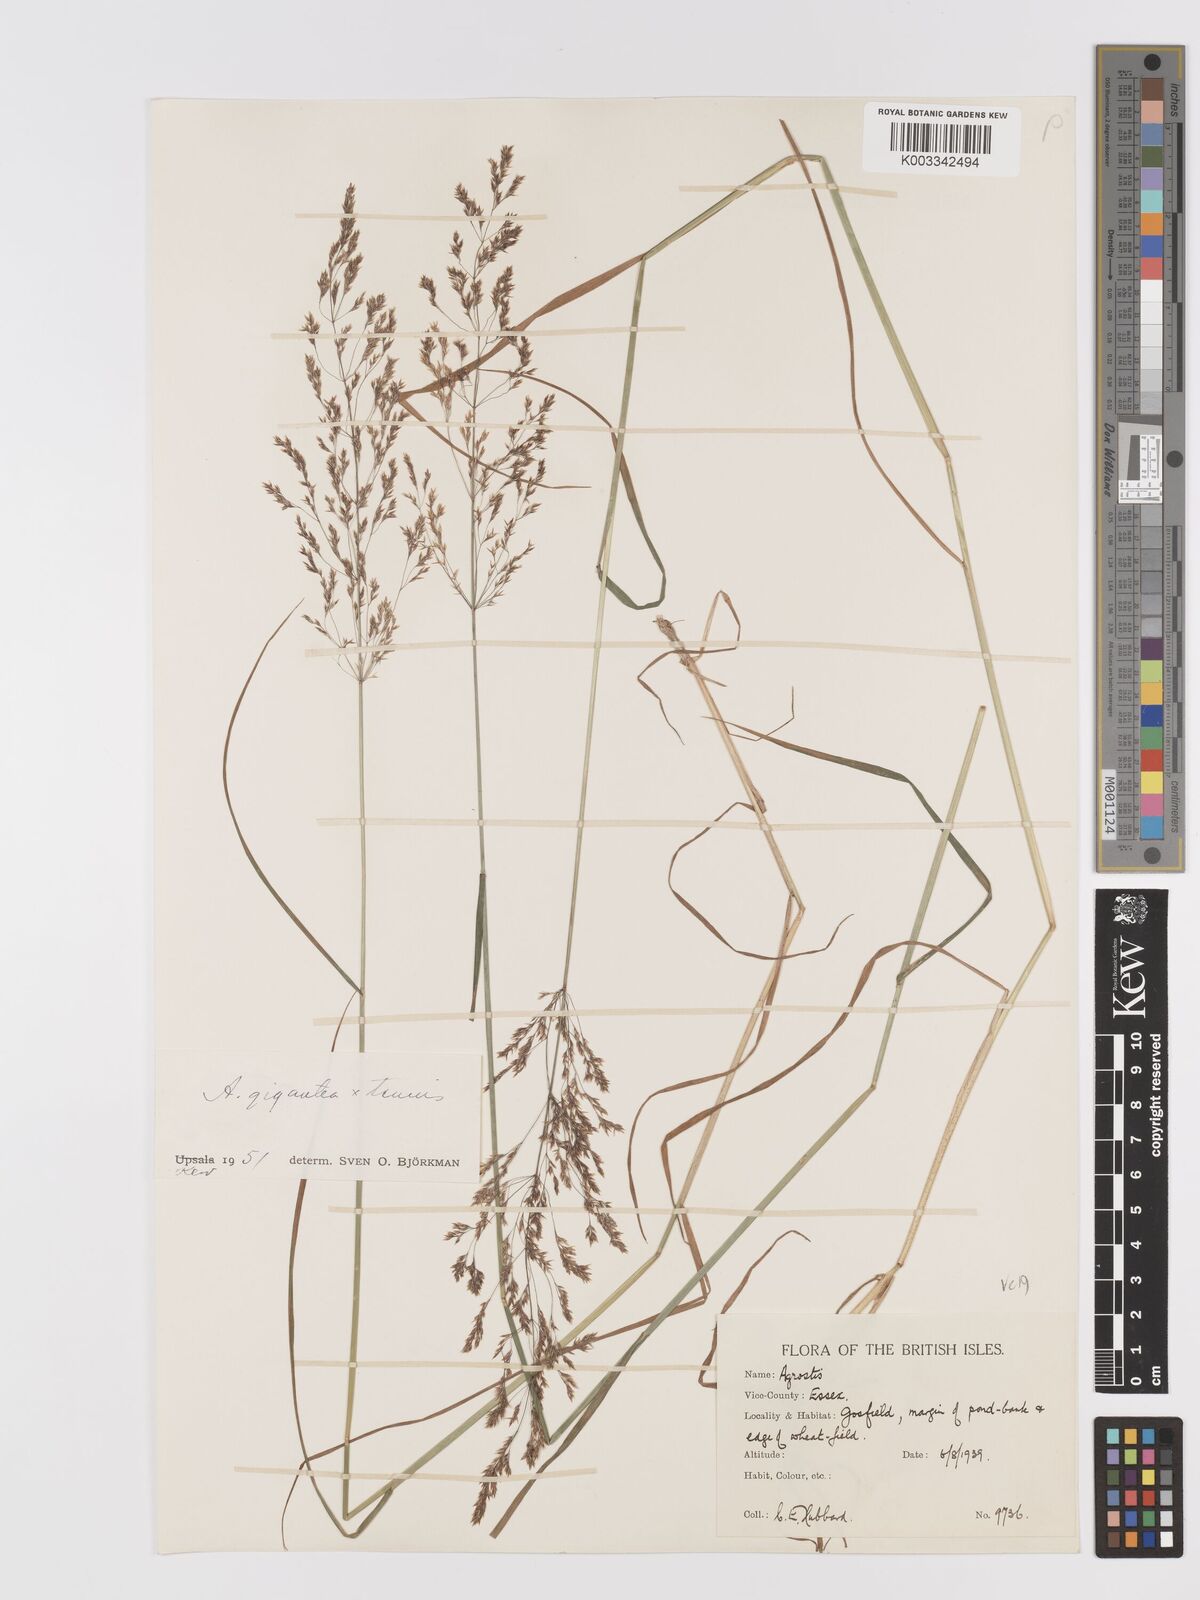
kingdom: Plantae
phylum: Tracheophyta
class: Liliopsida
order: Poales
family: Poaceae
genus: Agrostis
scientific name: Agrostis capillaris
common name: Colonial bentgrass
